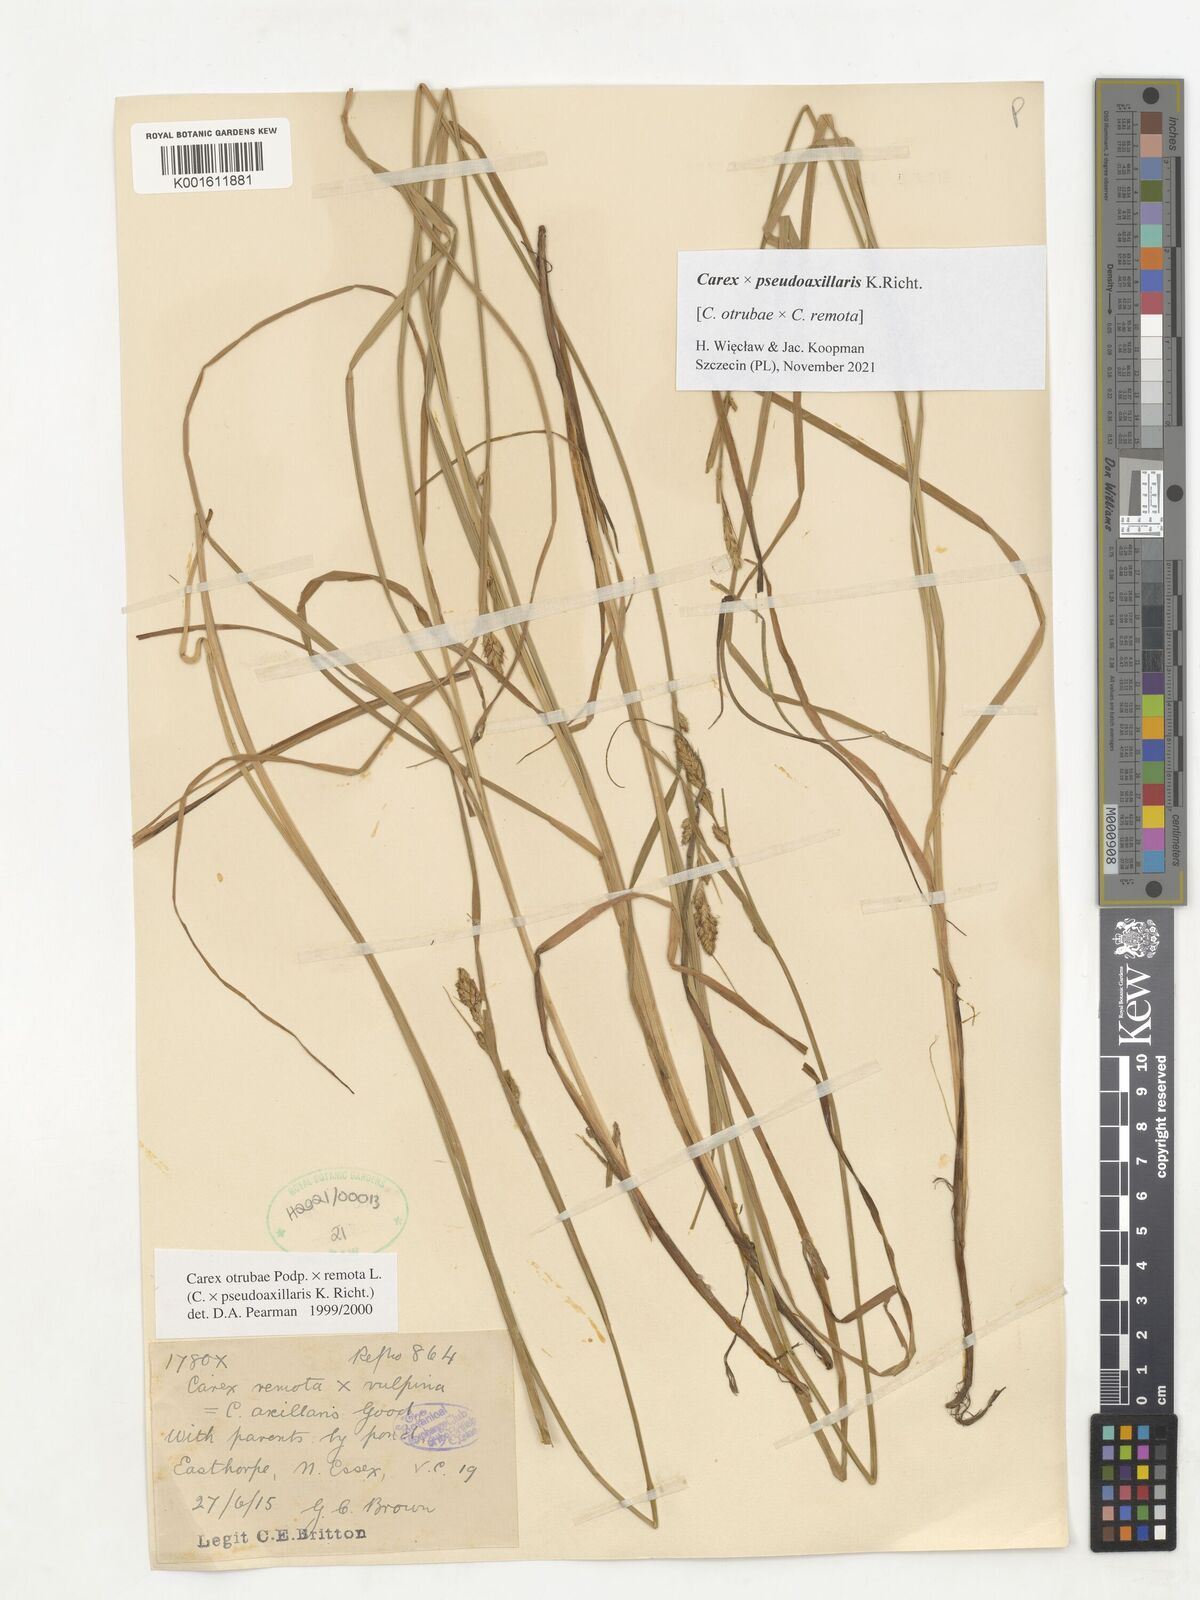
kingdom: Plantae
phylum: Tracheophyta
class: Liliopsida
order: Poales
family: Cyperaceae
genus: Carex
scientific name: Carex pseudoaxillaris
